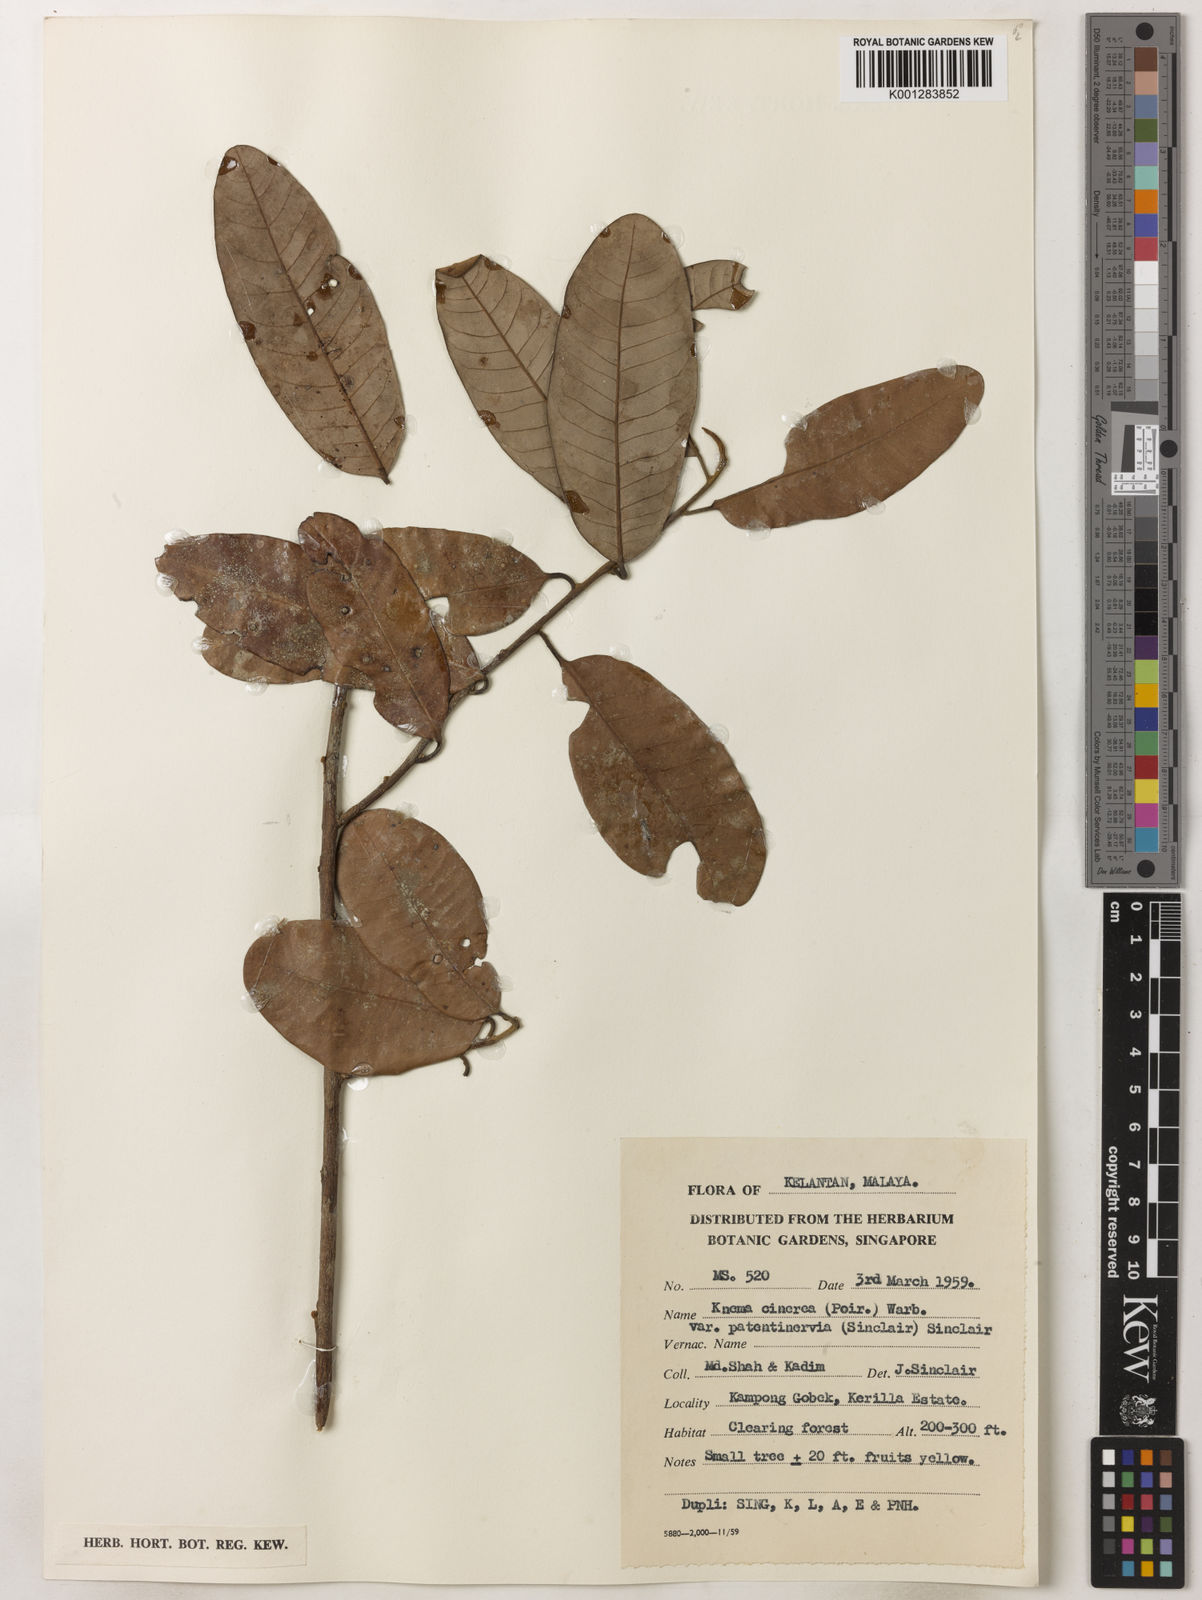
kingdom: Plantae
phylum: Tracheophyta
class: Magnoliopsida
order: Magnoliales
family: Myristicaceae
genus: Knema
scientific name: Knema
